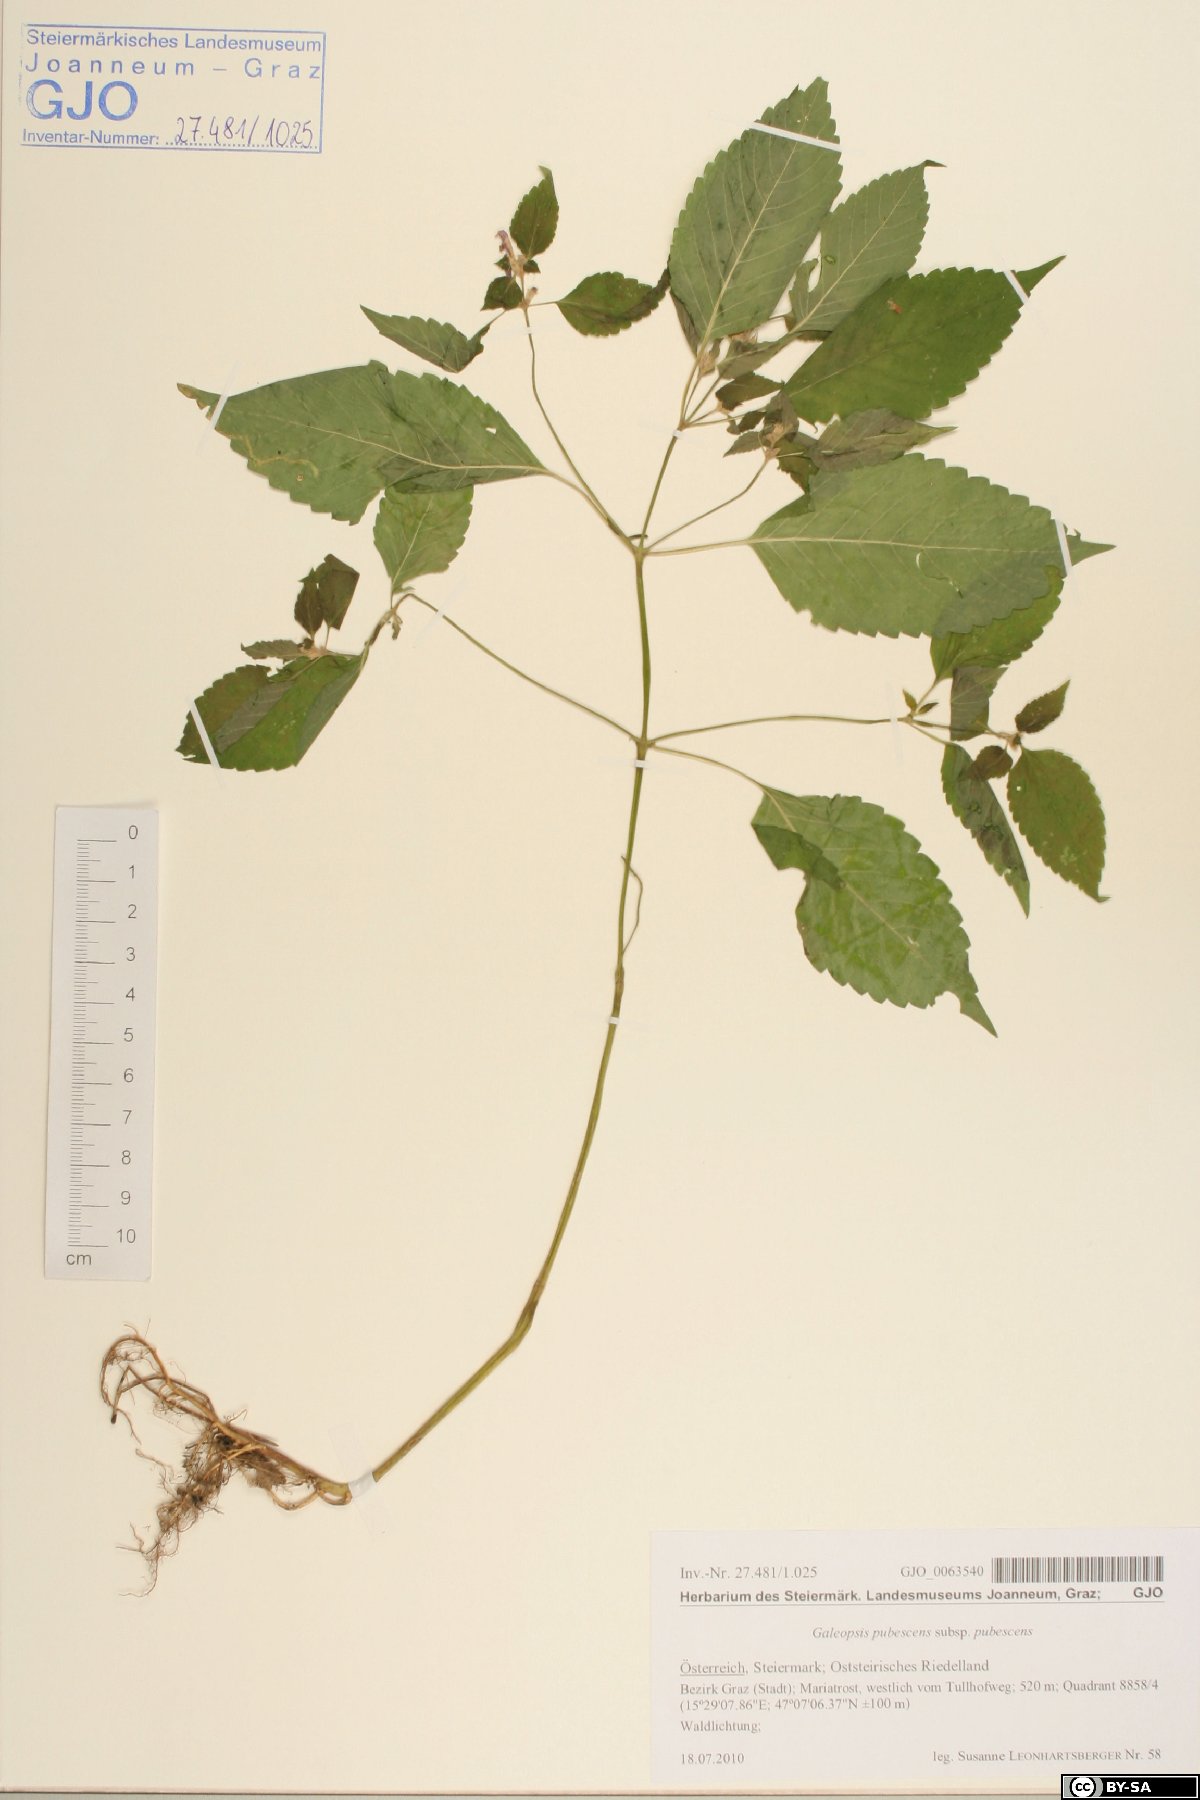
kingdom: Plantae
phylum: Tracheophyta
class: Magnoliopsida
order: Lamiales
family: Lamiaceae
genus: Galeopsis
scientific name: Galeopsis pubescens
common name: Downy hemp-nettle
